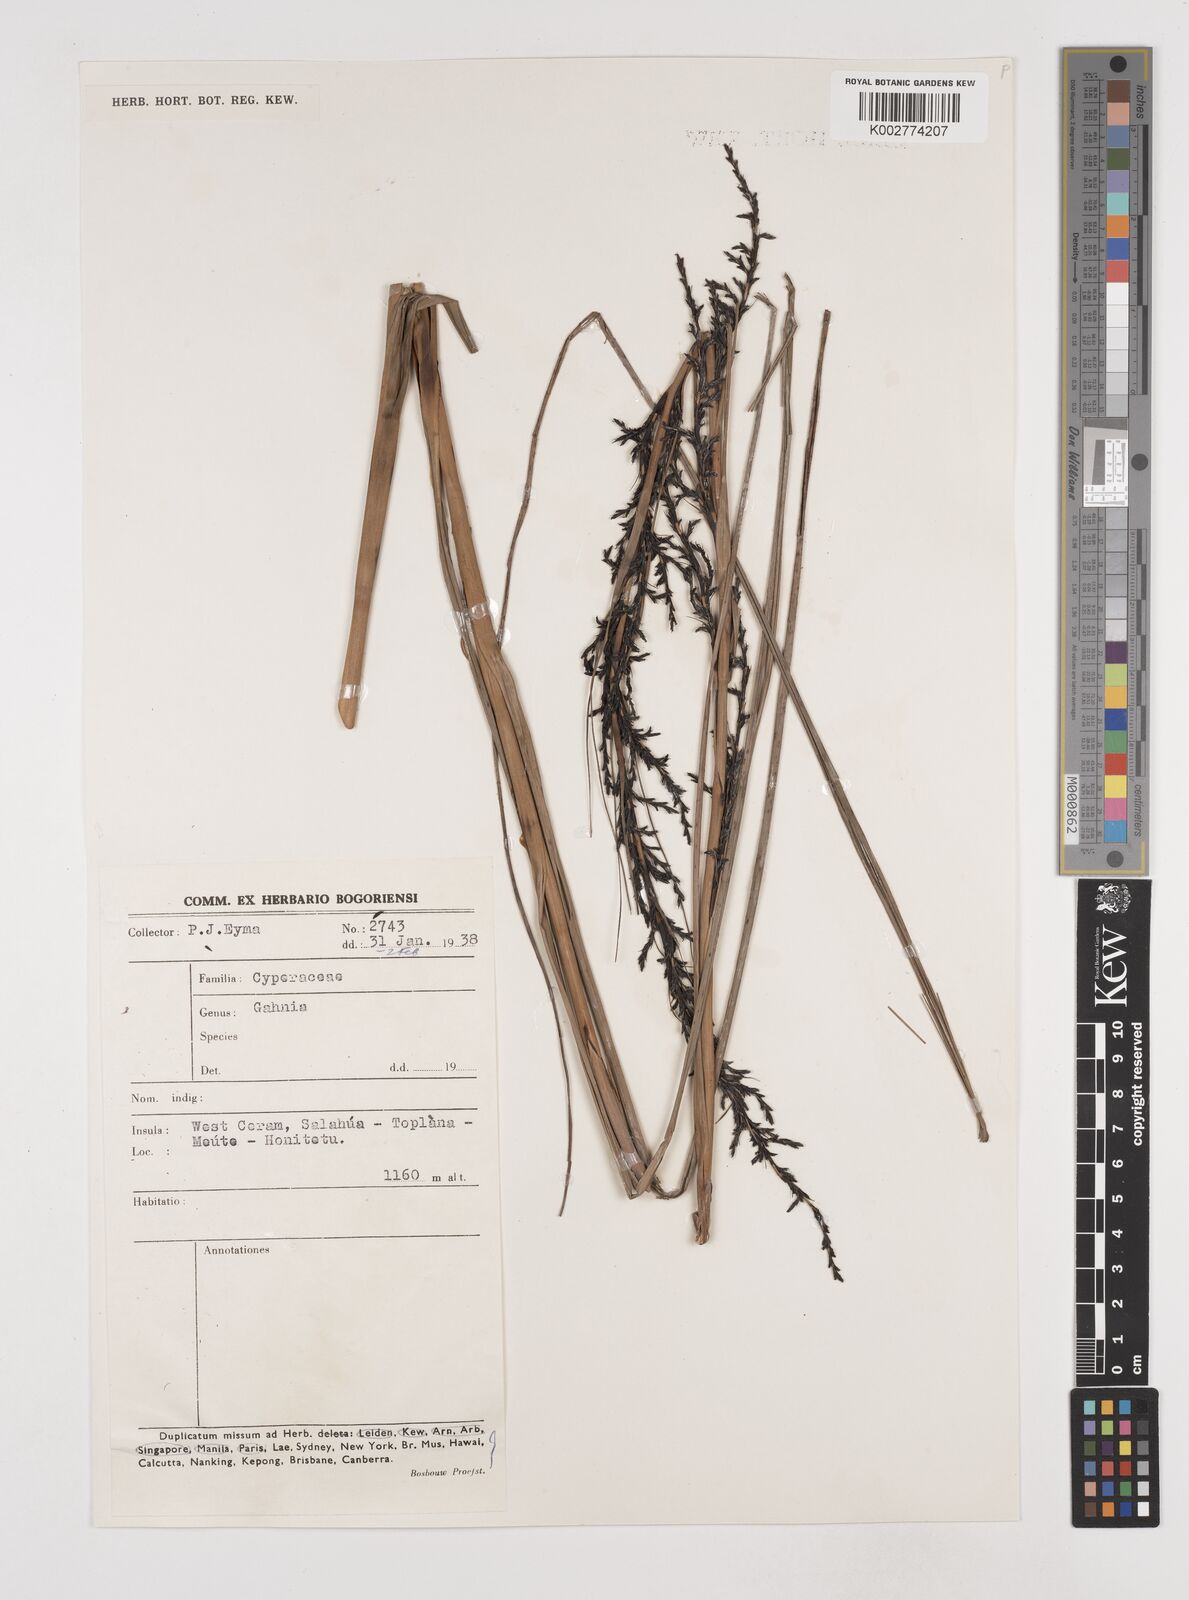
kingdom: Plantae
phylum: Tracheophyta
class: Liliopsida
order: Poales
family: Cyperaceae
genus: Gahnia
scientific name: Gahnia
